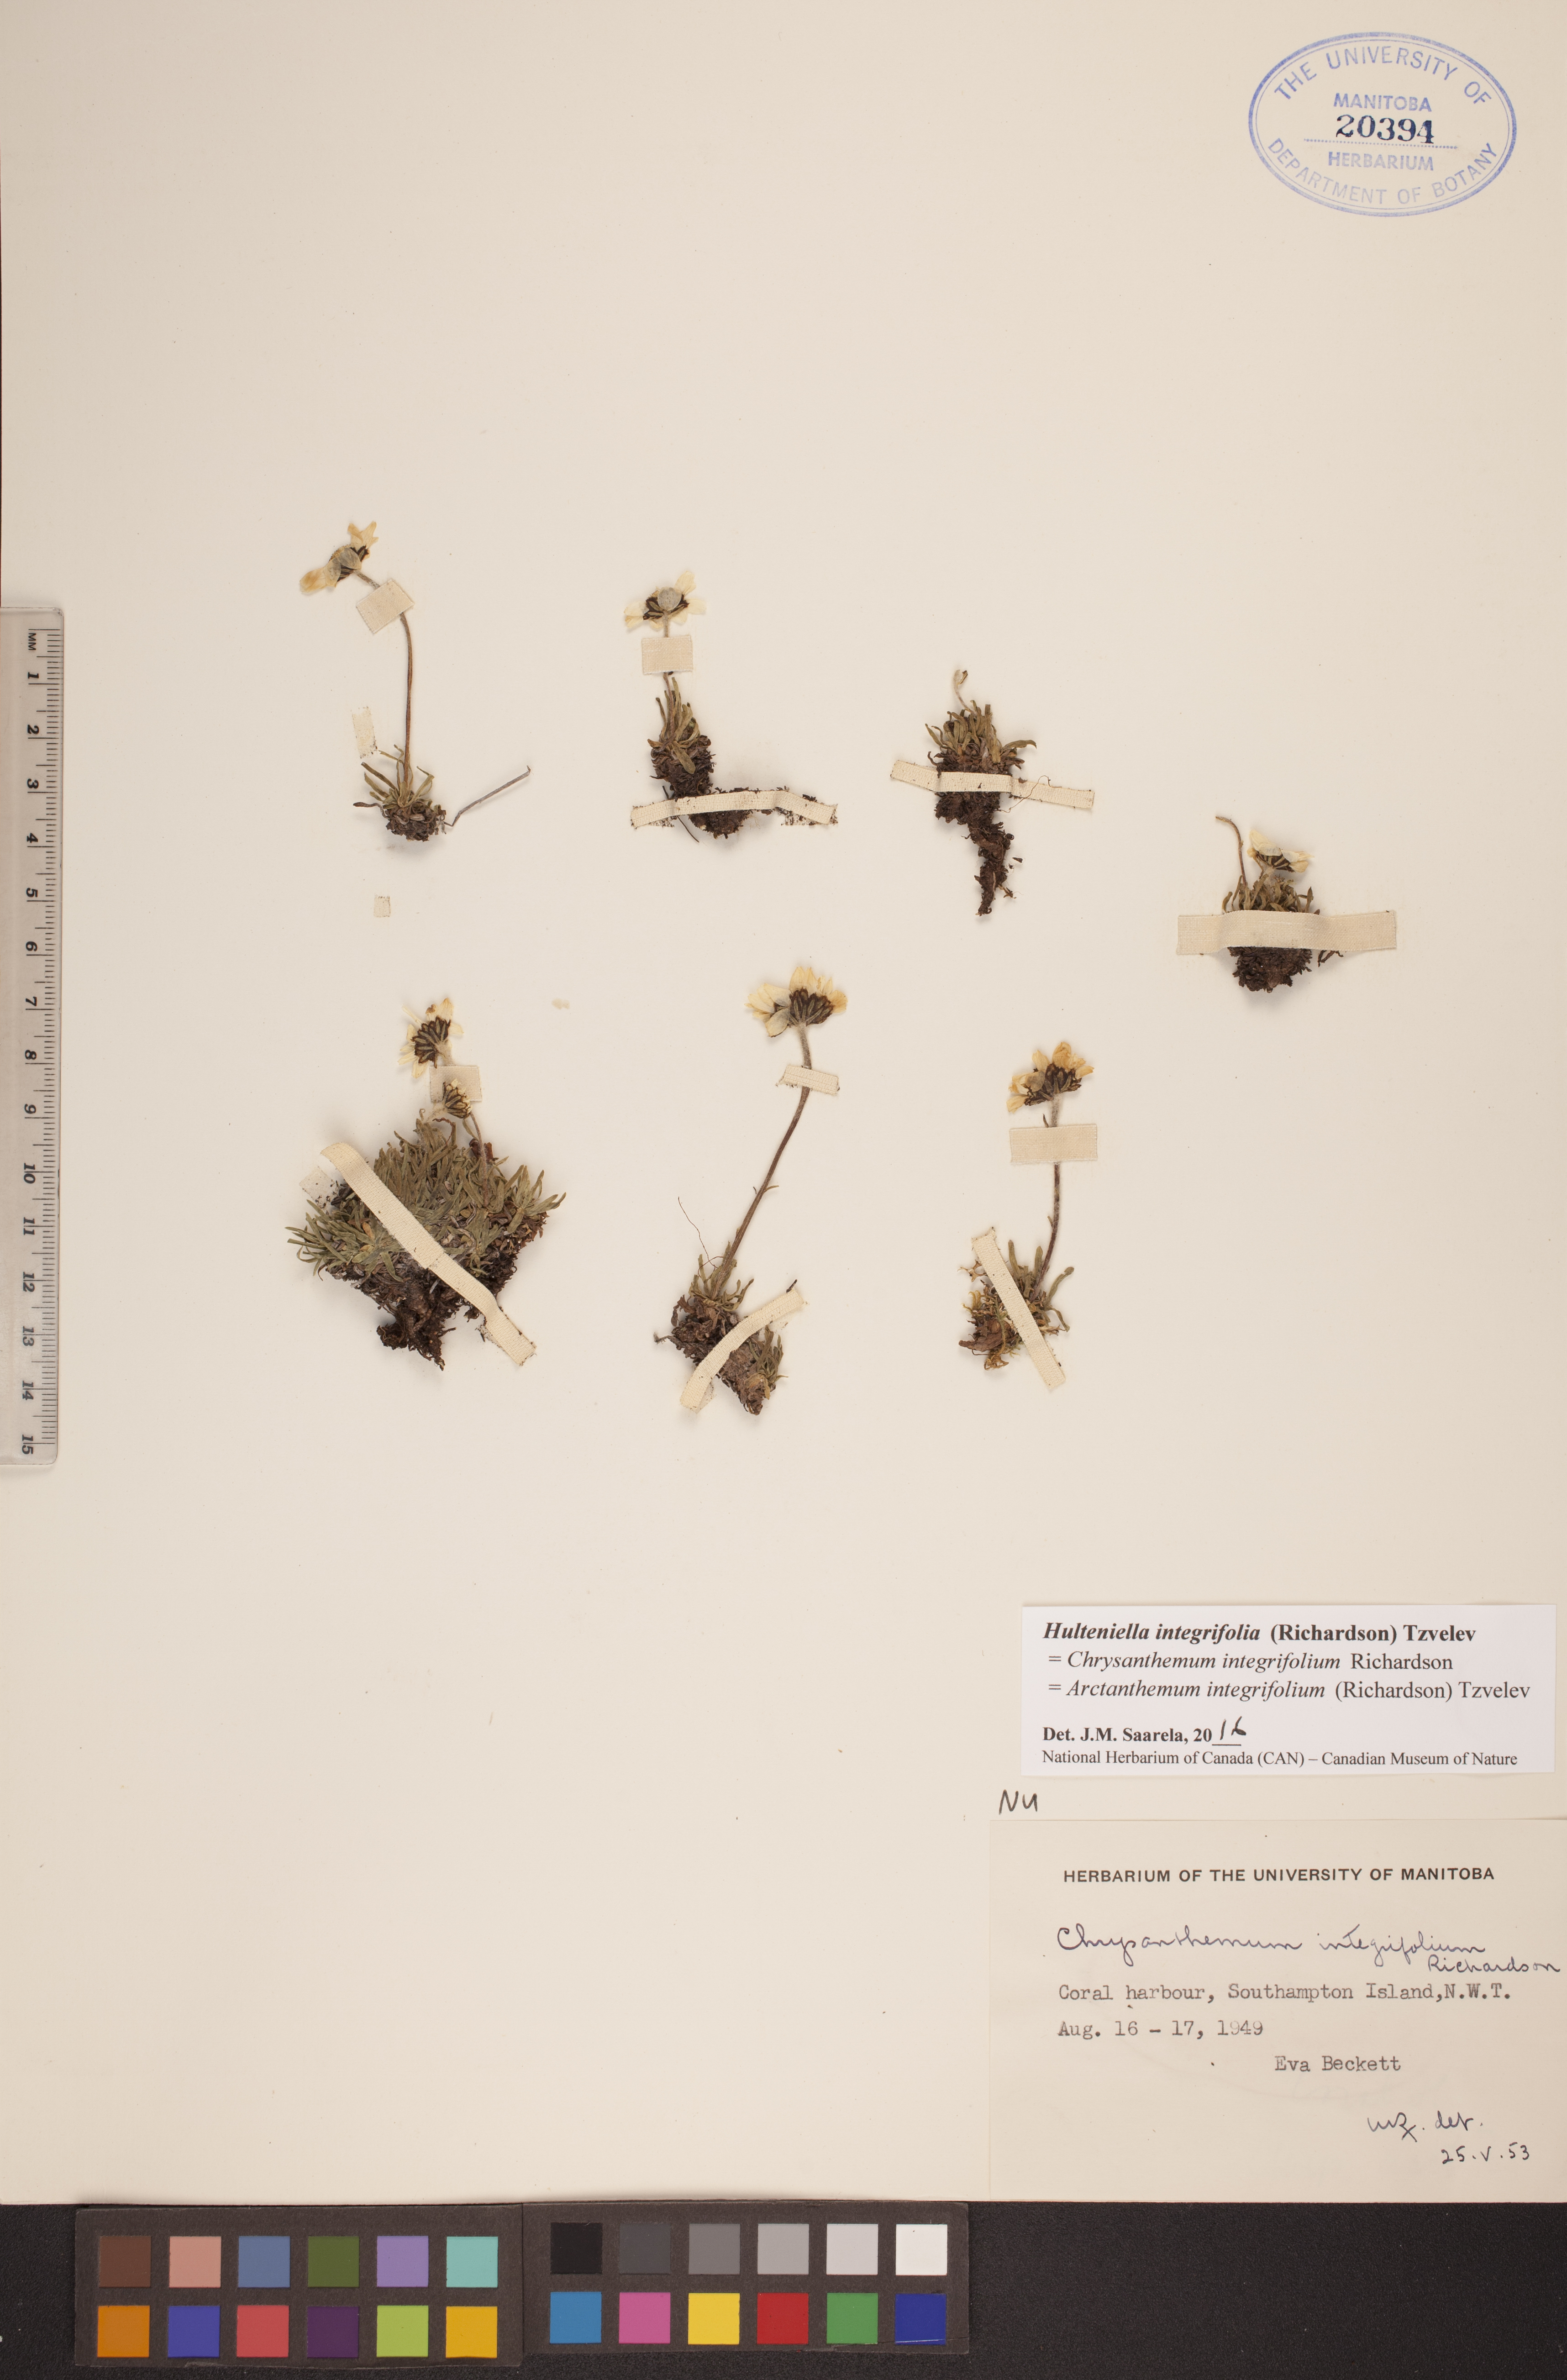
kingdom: Plantae
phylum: Tracheophyta
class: Magnoliopsida
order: Asterales
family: Asteraceae
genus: Arctanthemum
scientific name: Arctanthemum integrifolium
